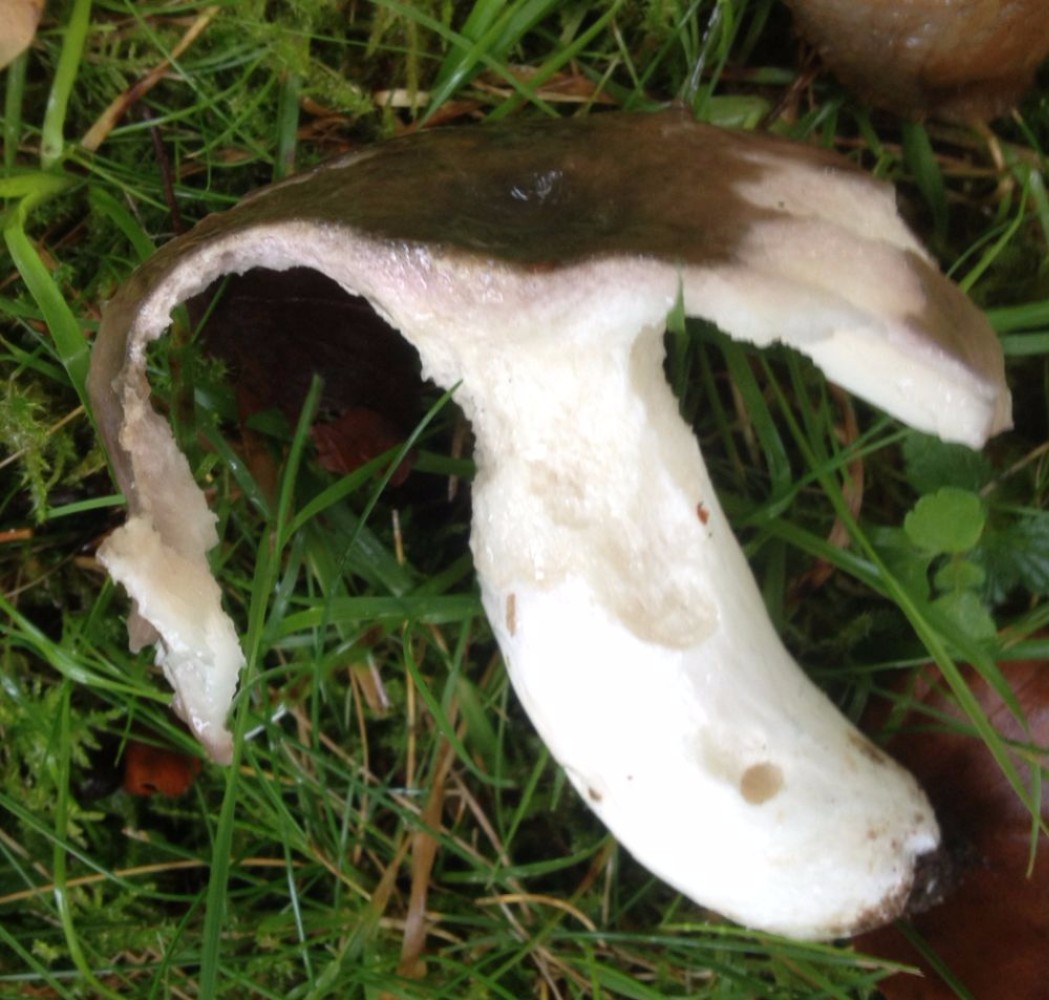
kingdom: Fungi
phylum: Basidiomycota
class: Agaricomycetes
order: Russulales
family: Russulaceae
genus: Russula
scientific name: Russula
